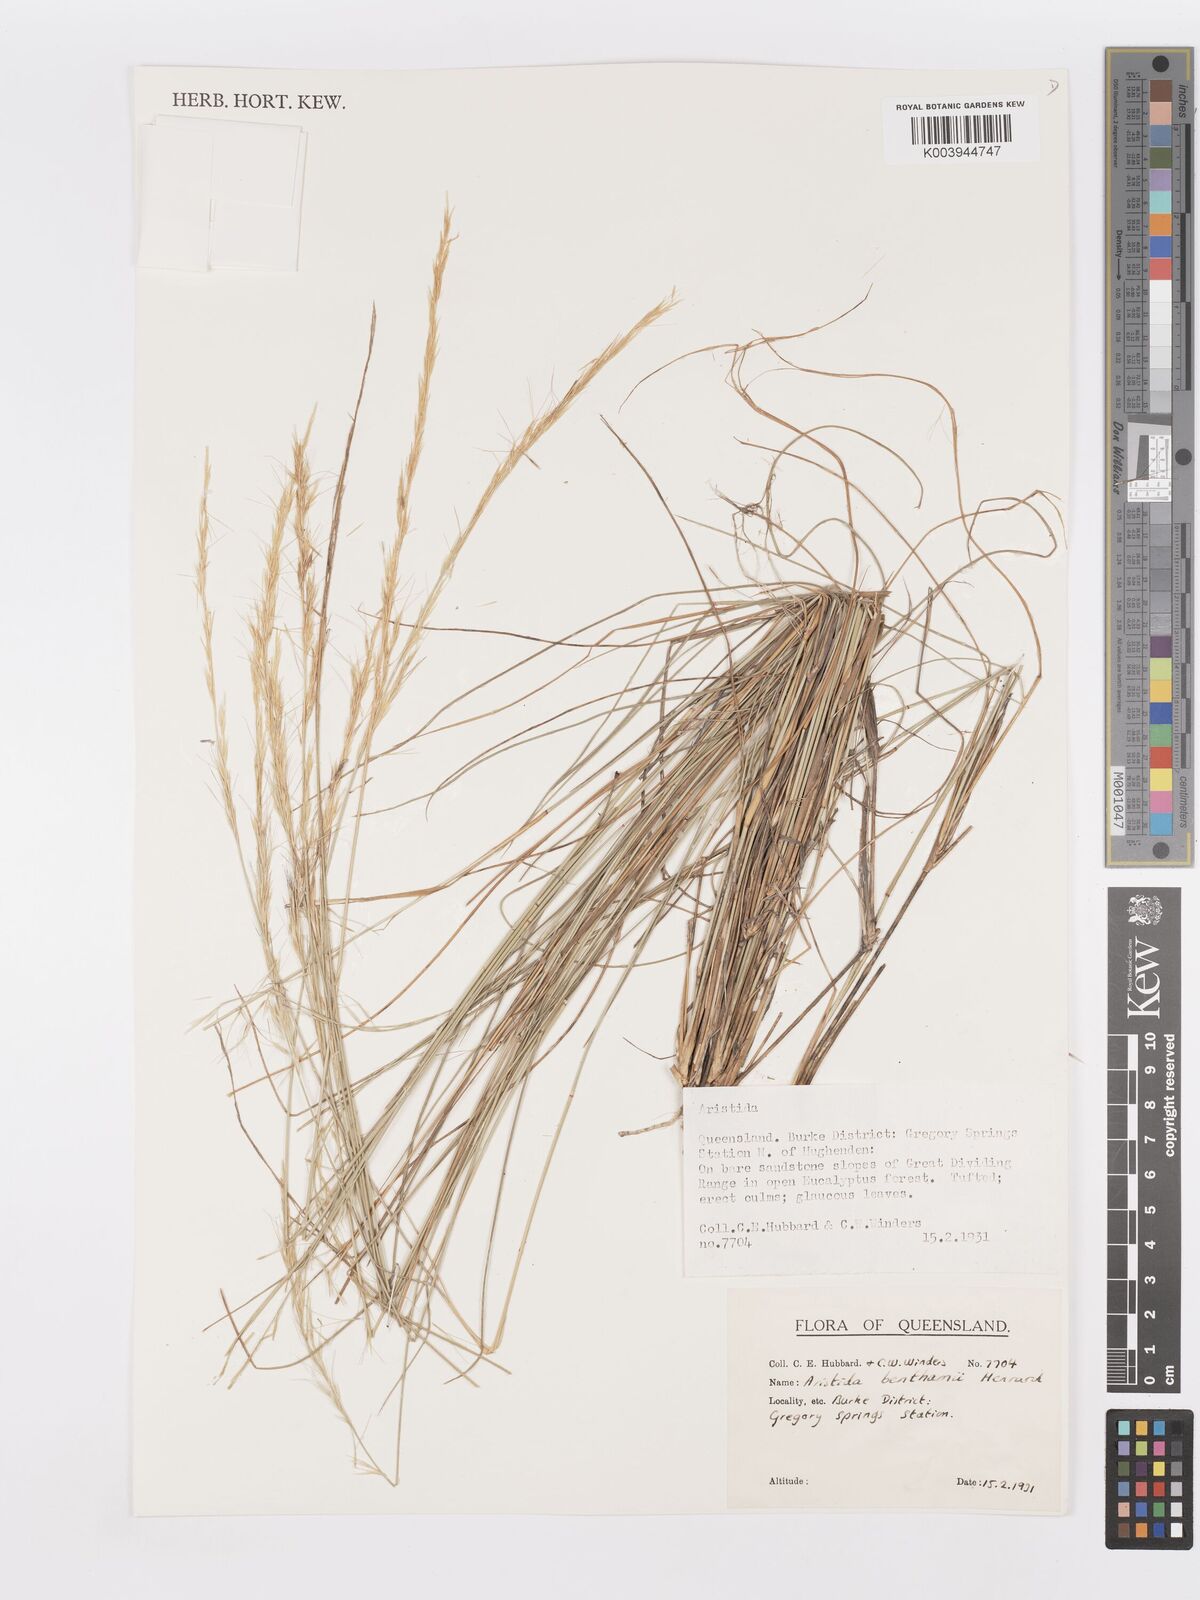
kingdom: Plantae
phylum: Tracheophyta
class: Liliopsida
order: Poales
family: Poaceae
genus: Aristida
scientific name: Aristida benthamii
